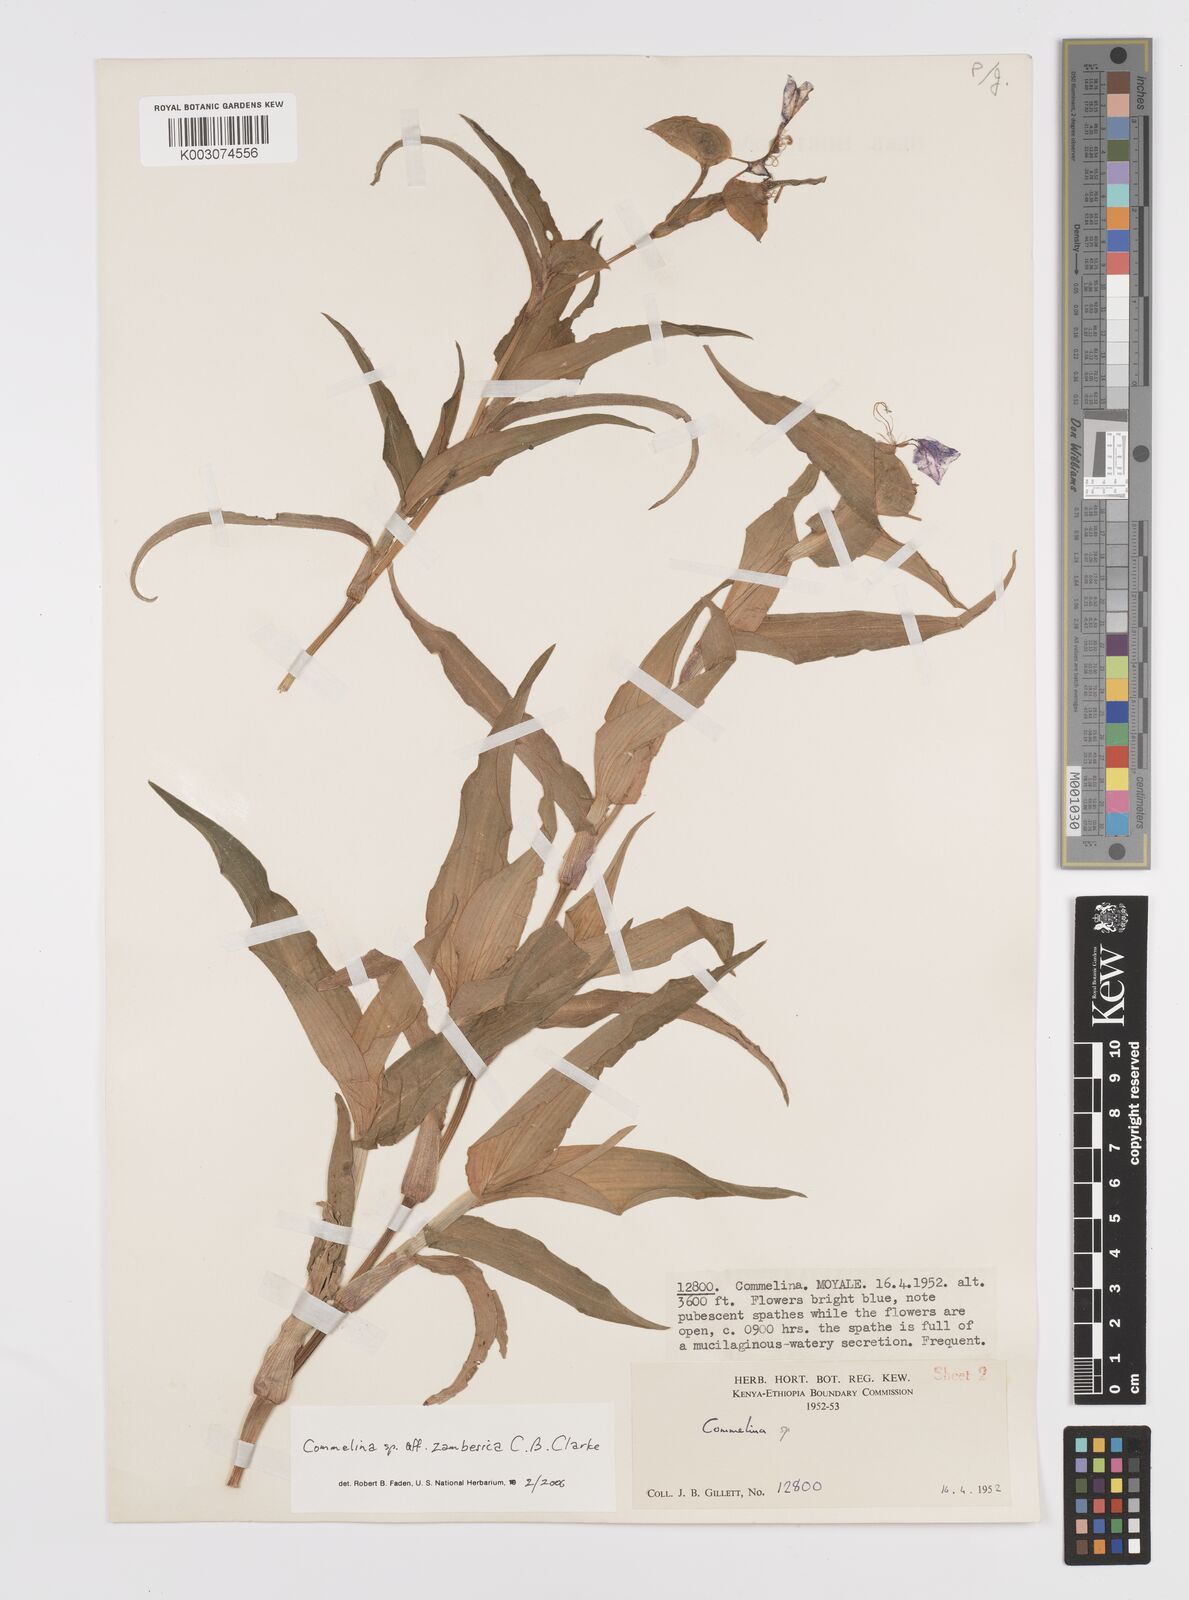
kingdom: Plantae
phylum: Tracheophyta
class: Liliopsida
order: Commelinales
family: Commelinaceae
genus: Commelina
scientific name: Commelina zambesica
